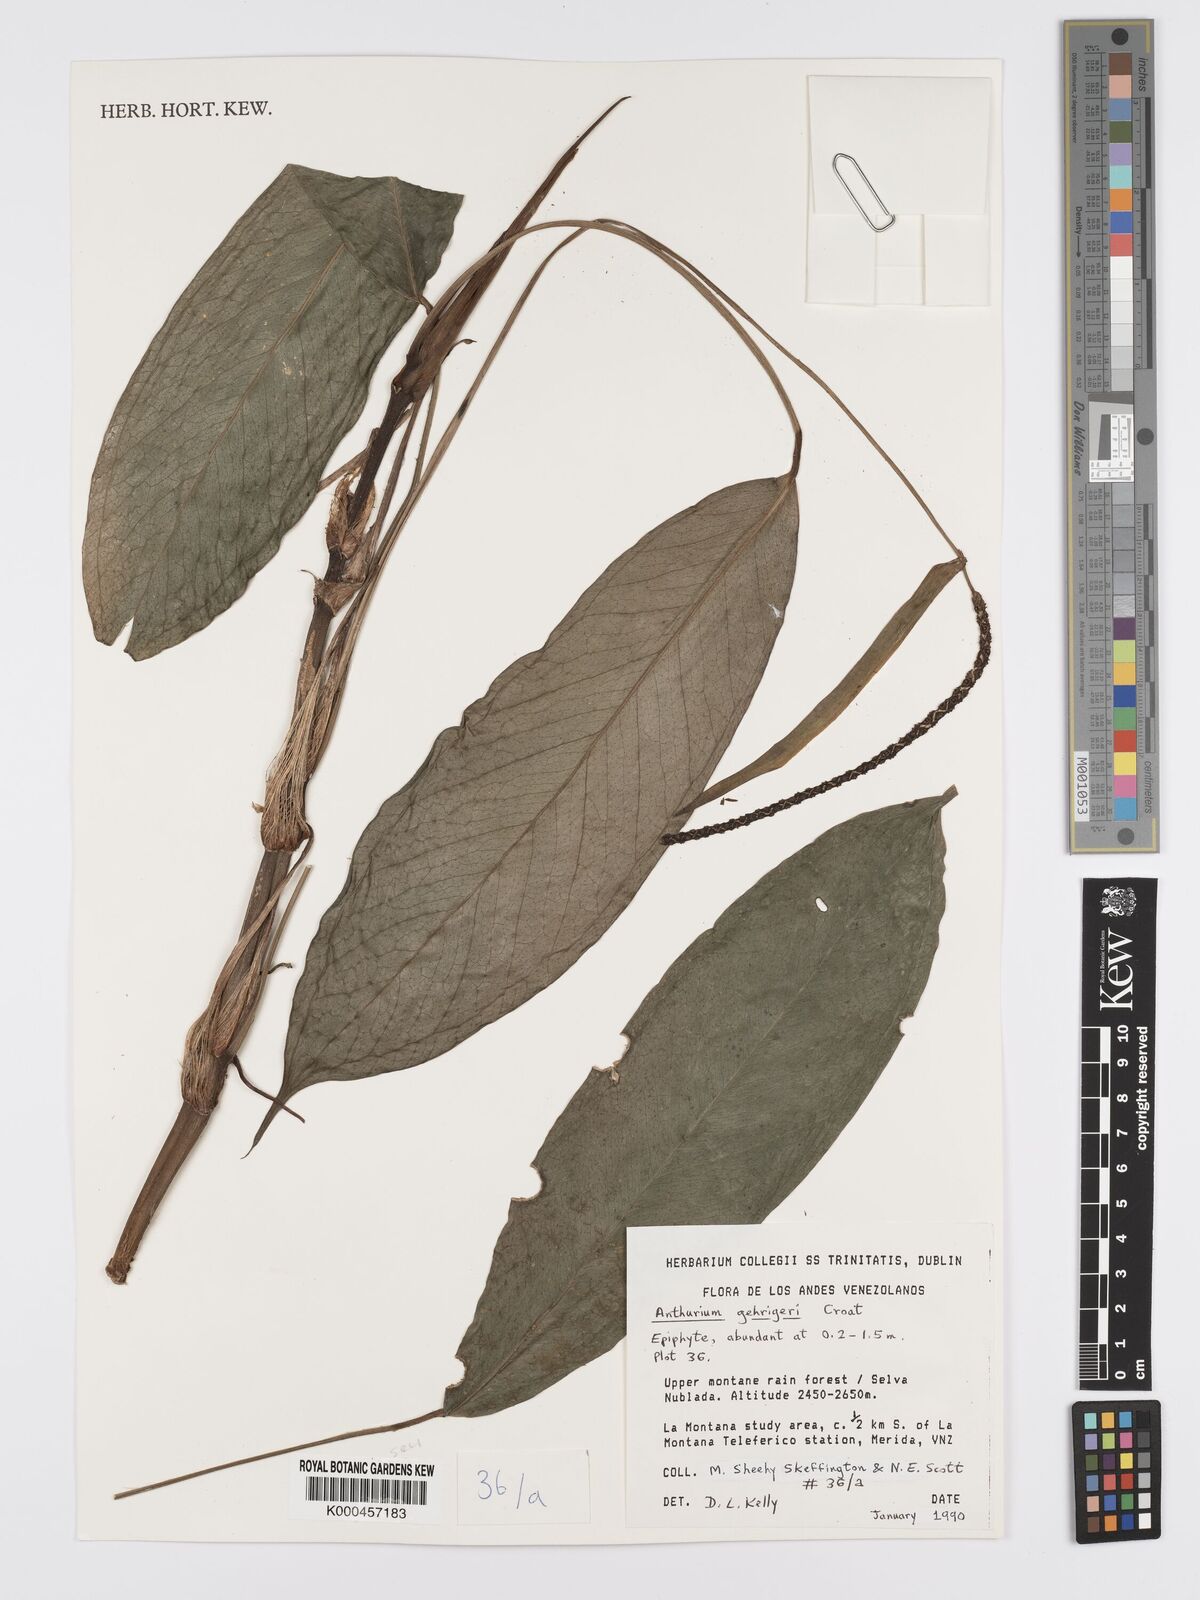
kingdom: Plantae
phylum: Tracheophyta
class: Liliopsida
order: Alismatales
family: Araceae
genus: Anthurium
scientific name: Anthurium gehrigeri
